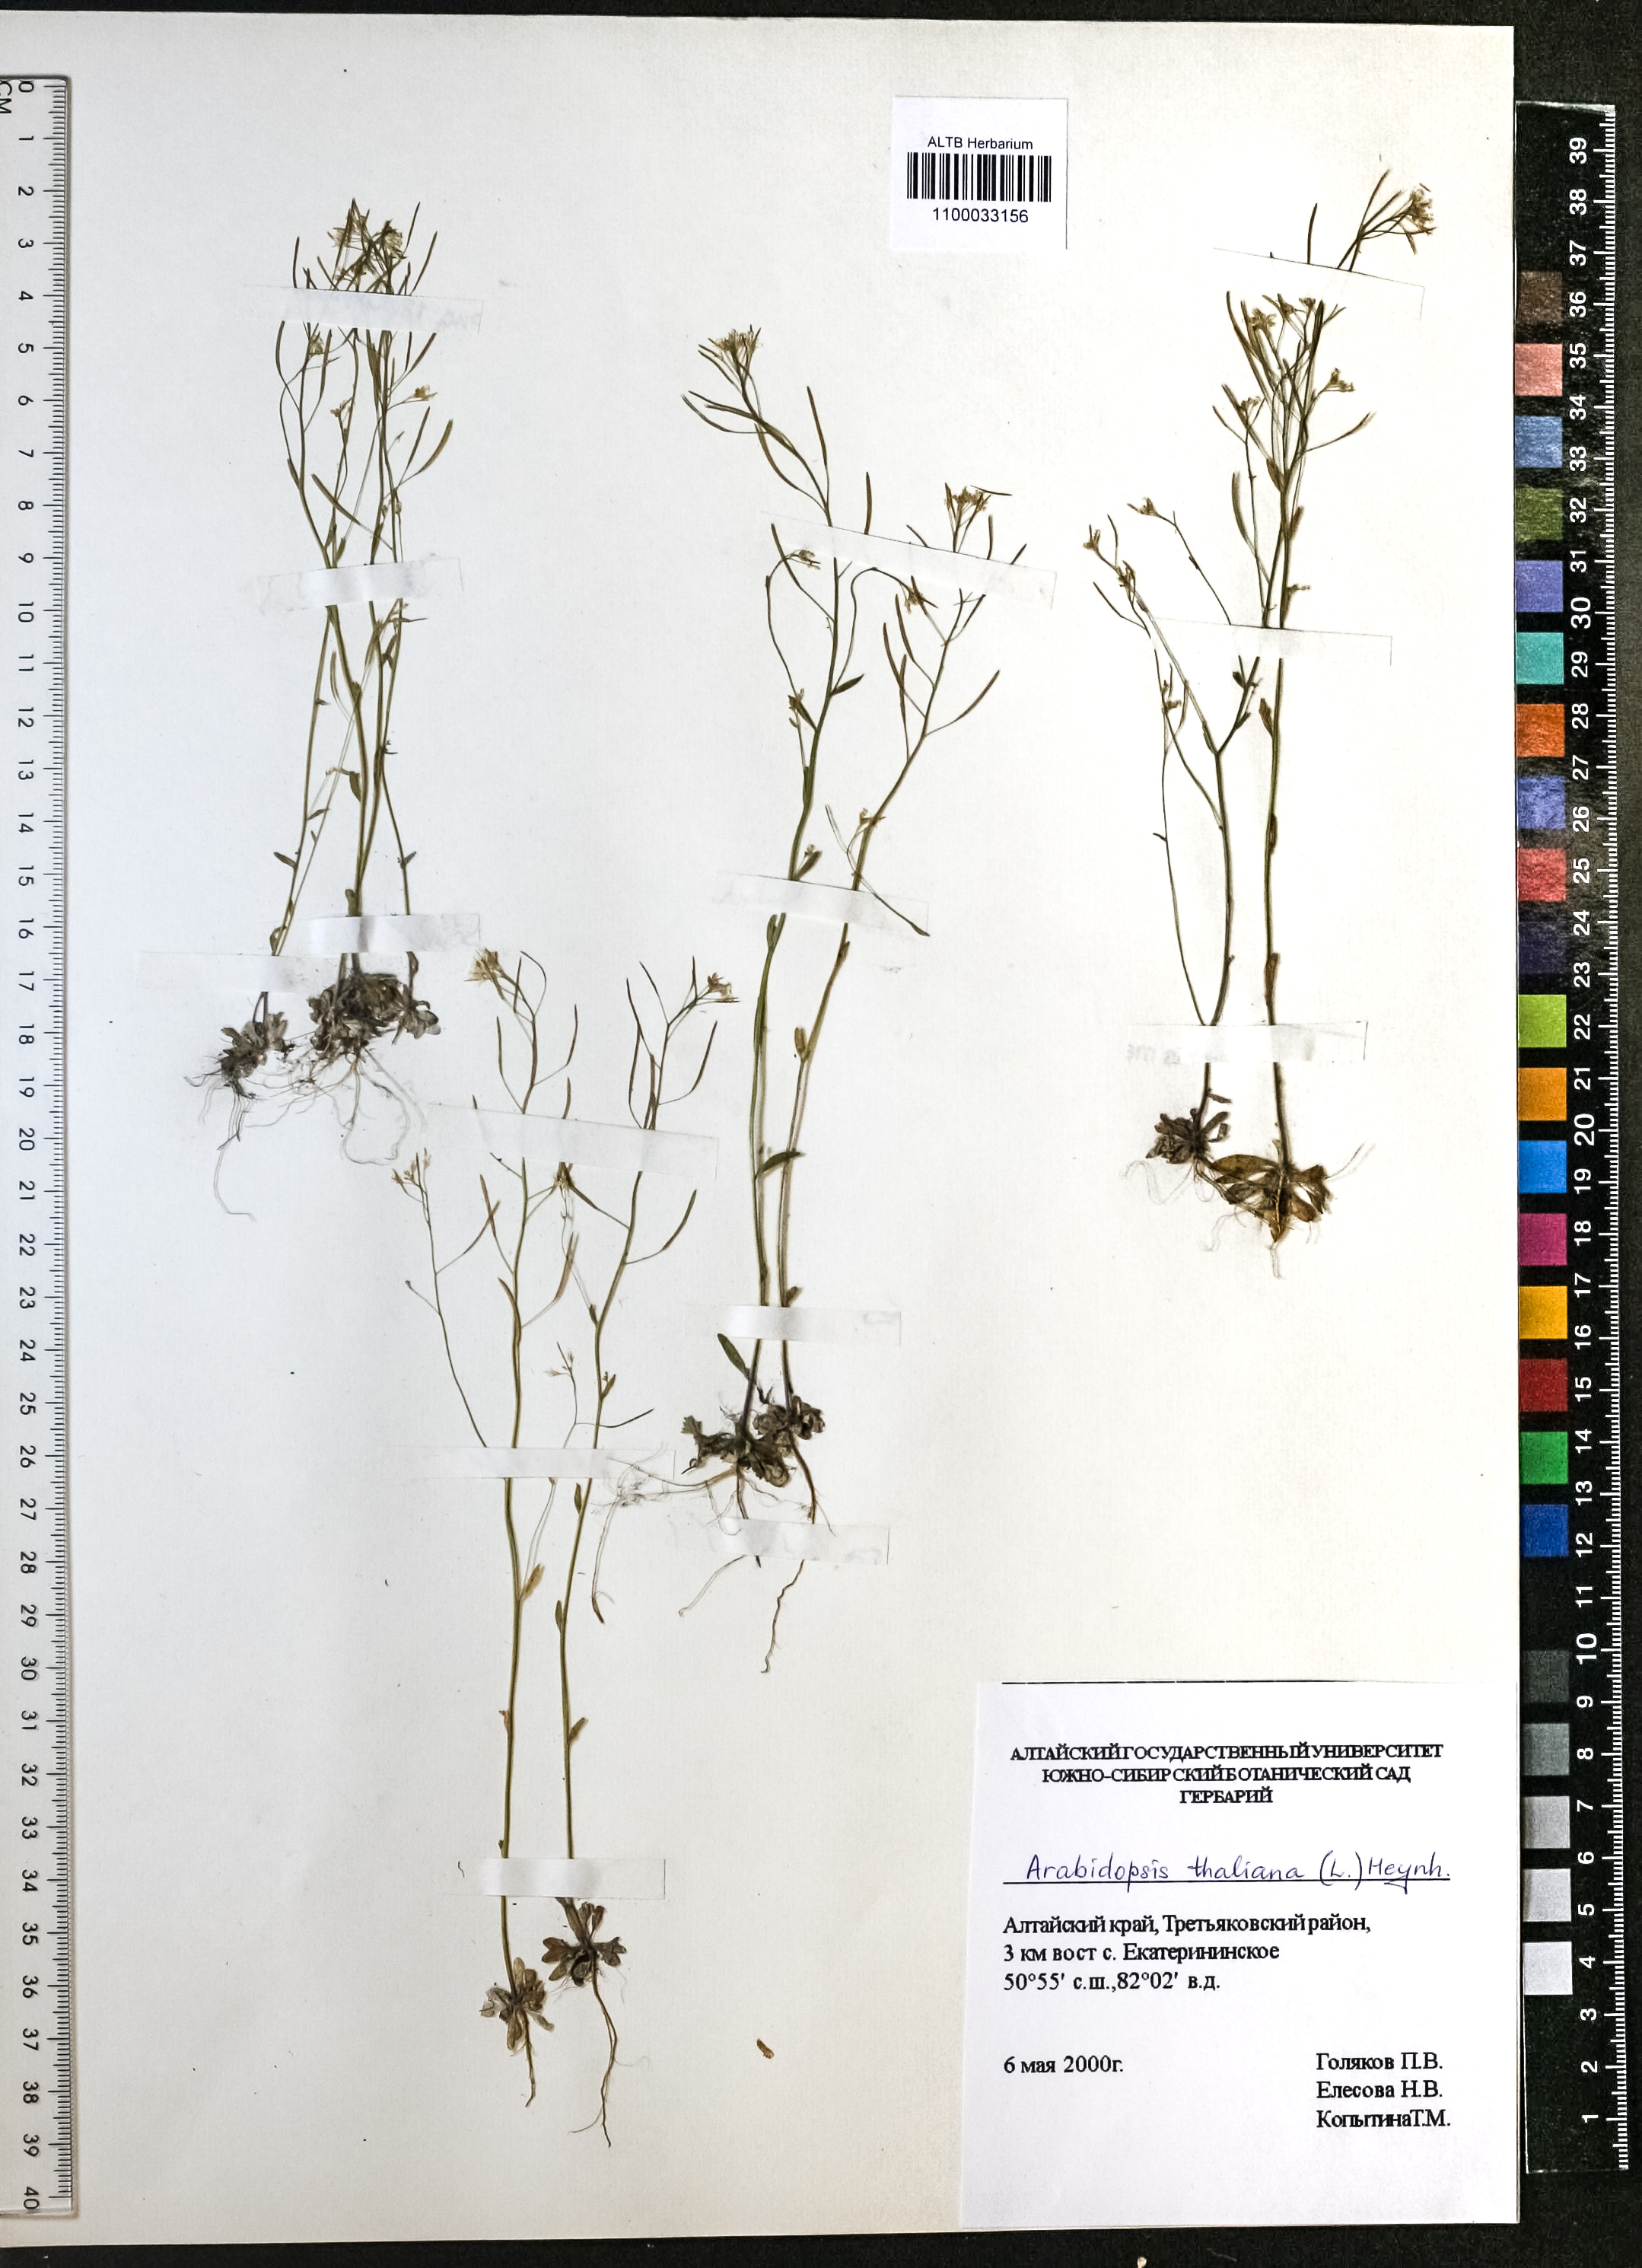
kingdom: Plantae
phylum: Tracheophyta
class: Magnoliopsida
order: Brassicales
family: Brassicaceae
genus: Arabidopsis
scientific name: Arabidopsis thaliana
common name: Thale cress
